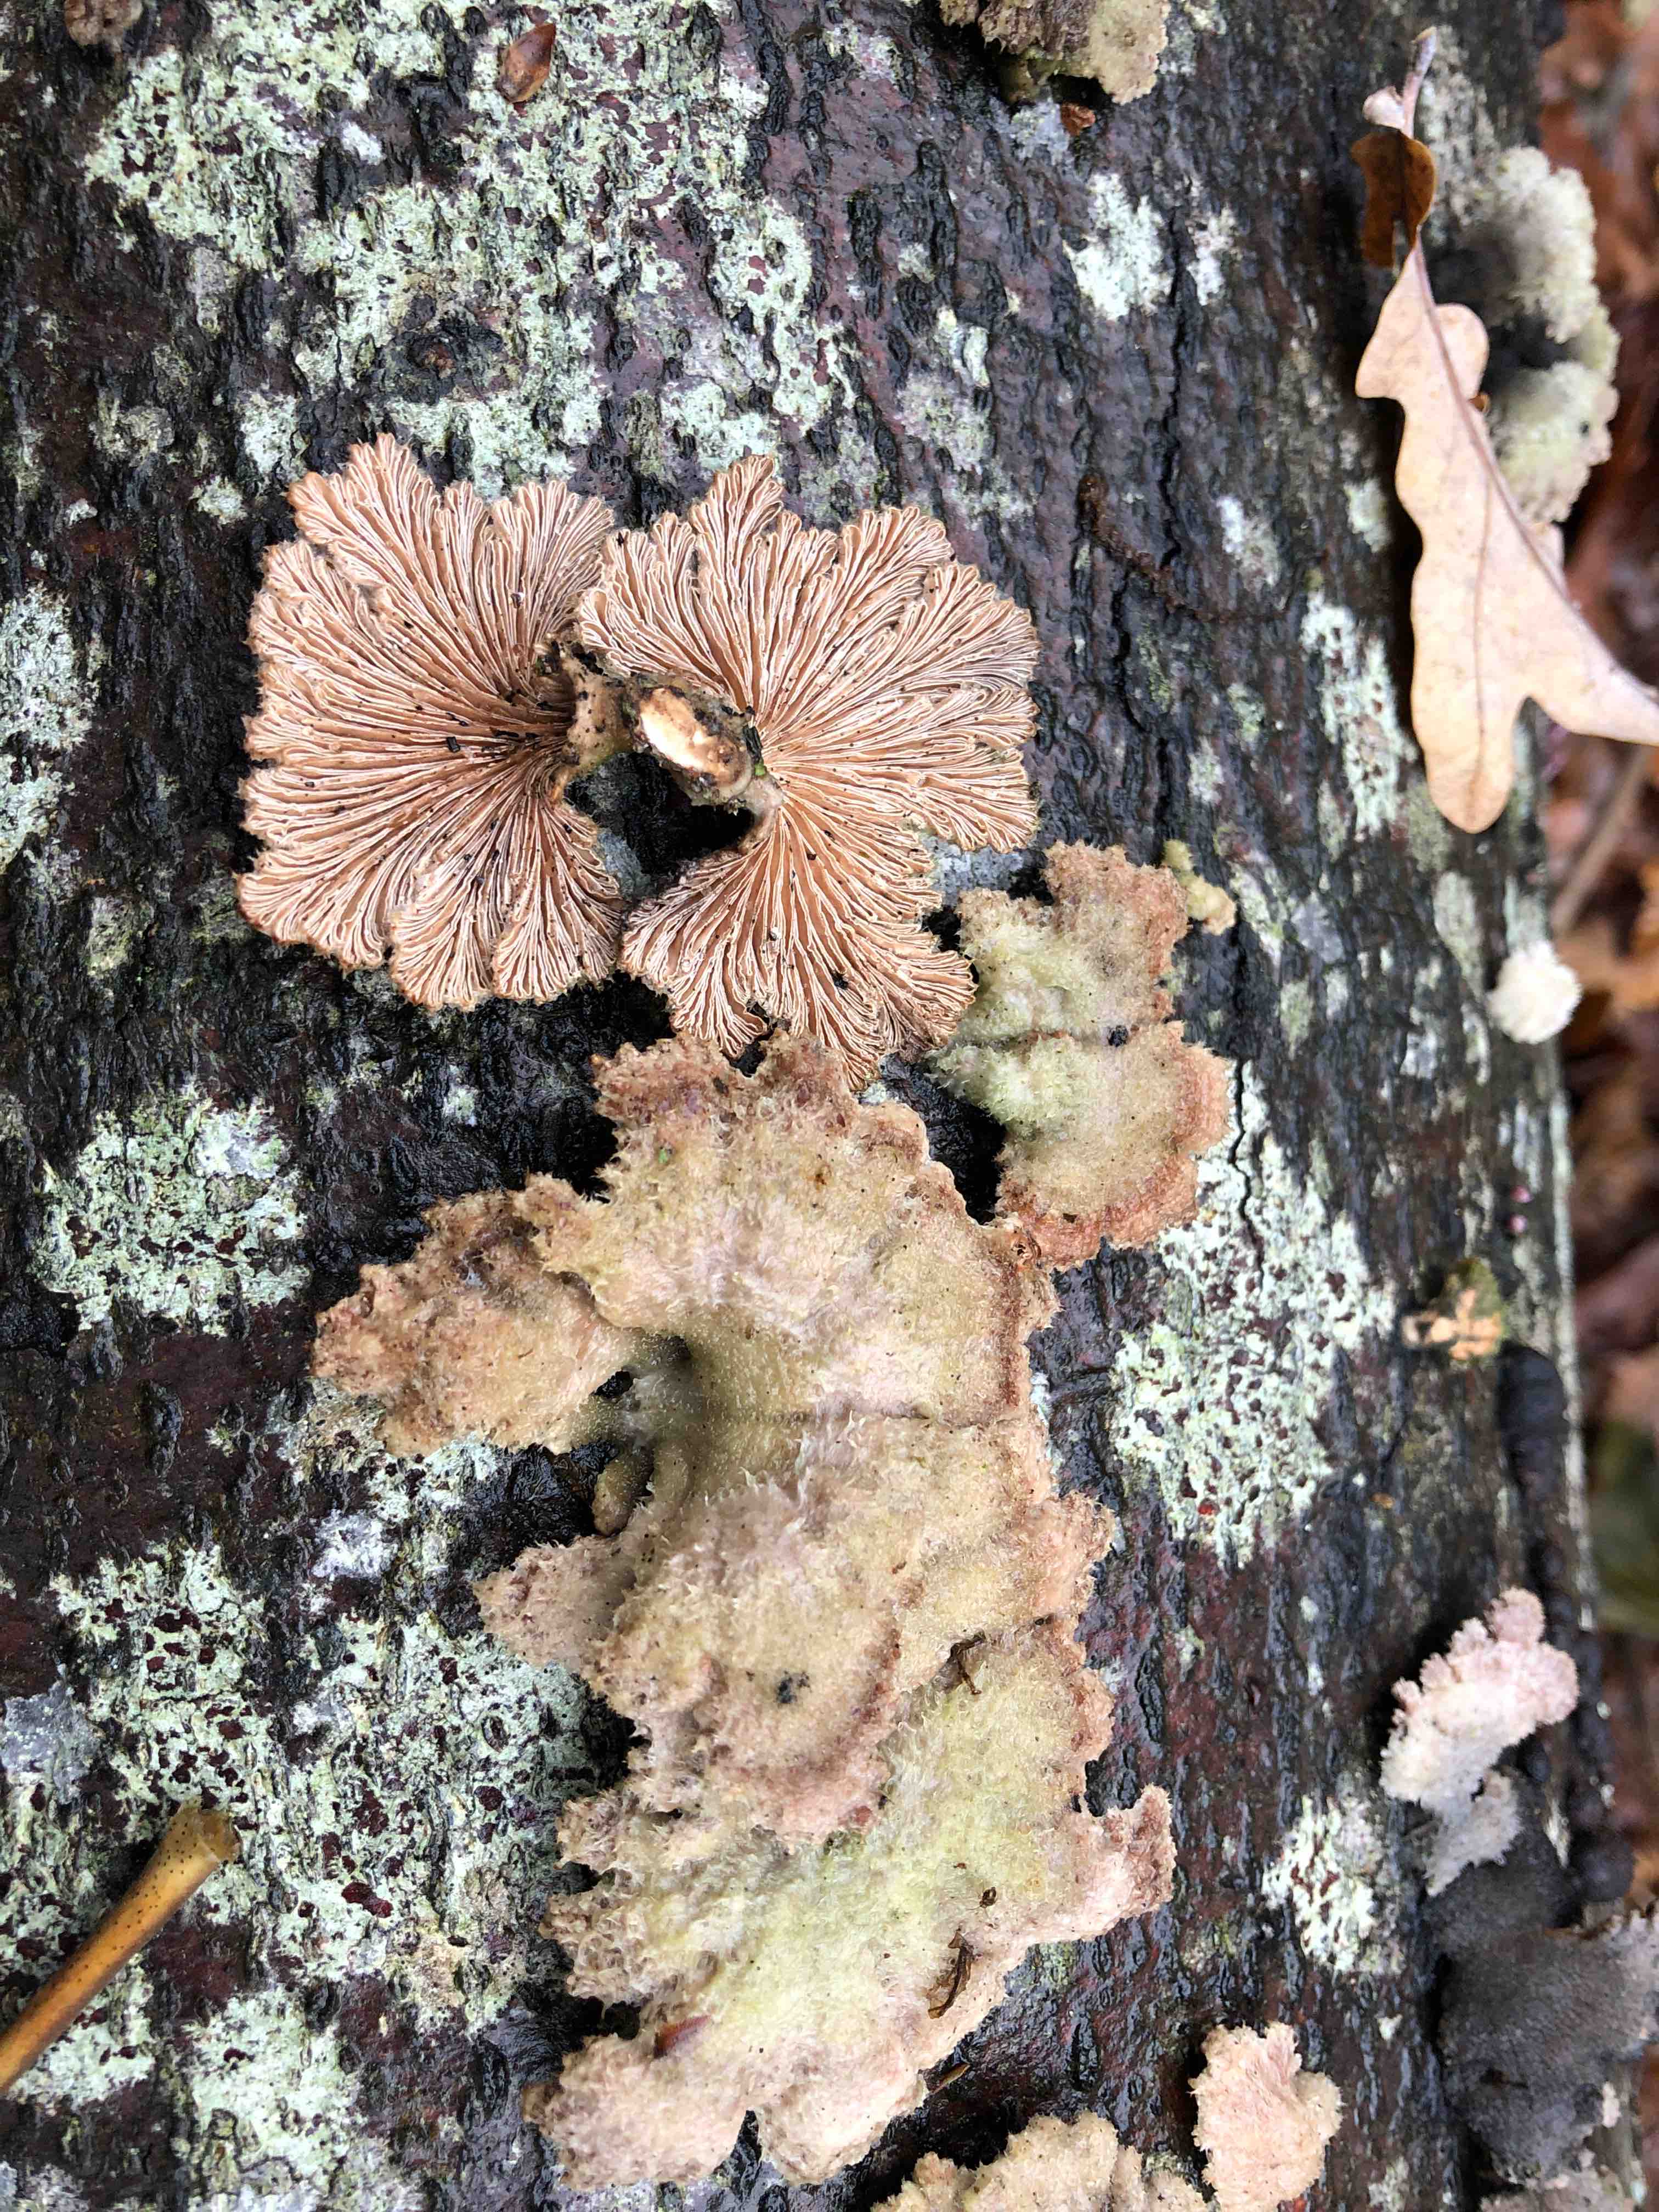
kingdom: Fungi
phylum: Basidiomycota
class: Agaricomycetes
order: Agaricales
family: Schizophyllaceae
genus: Schizophyllum
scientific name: Schizophyllum commune
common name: kløvblad
